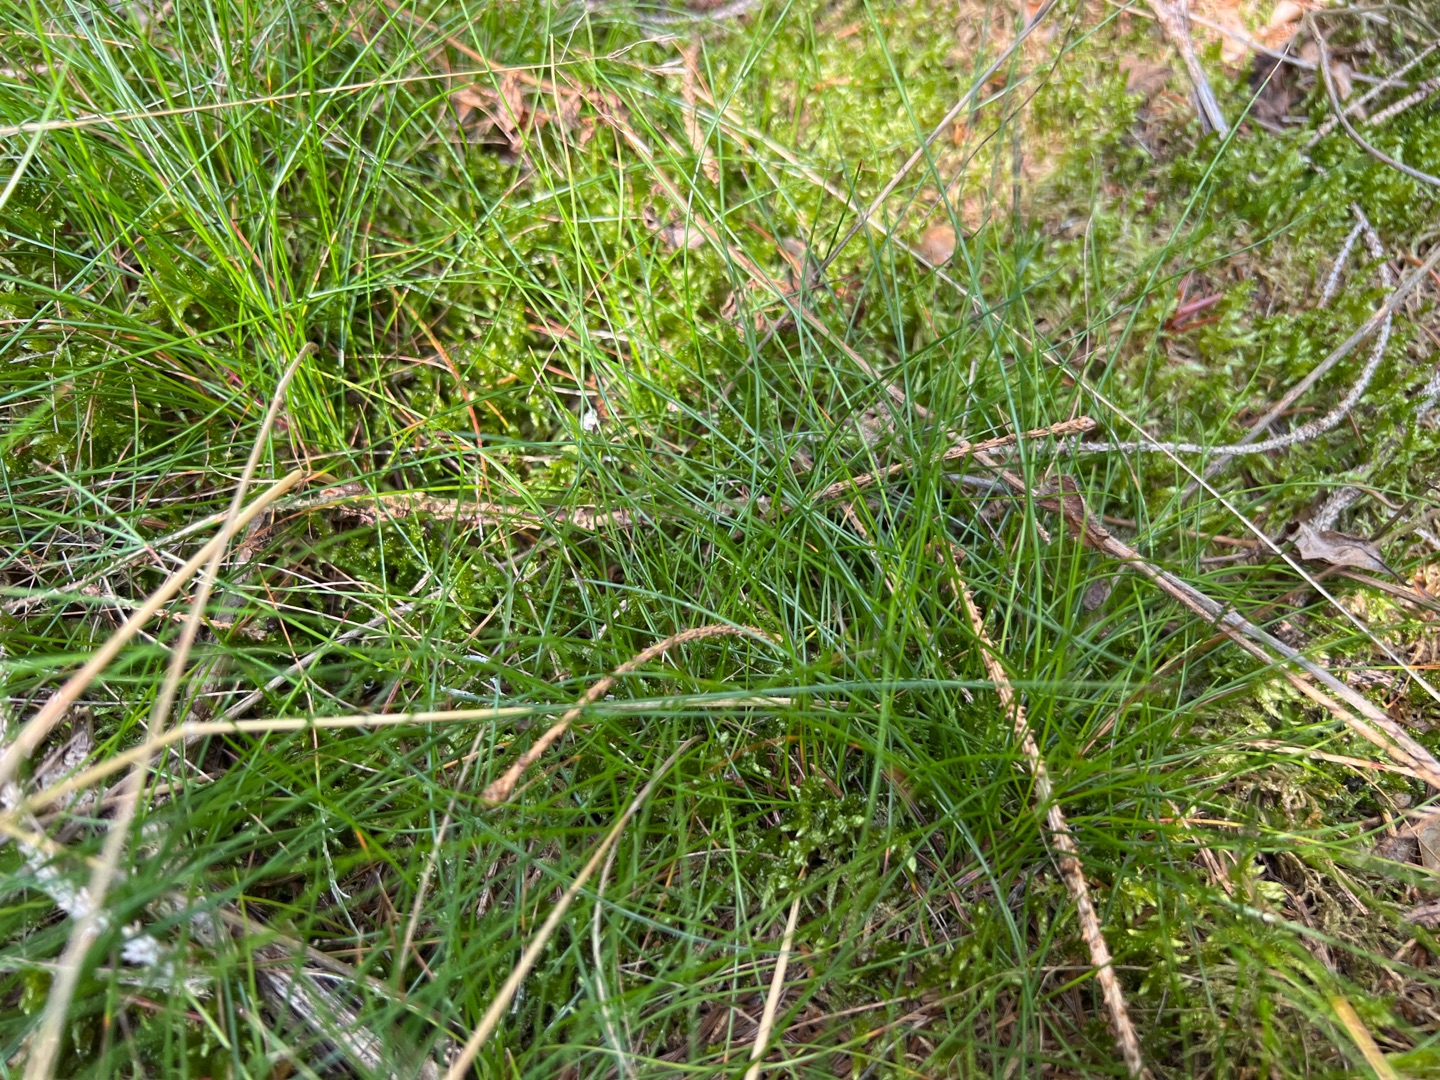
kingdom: Plantae
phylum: Tracheophyta
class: Liliopsida
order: Poales
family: Poaceae
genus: Avenella
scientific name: Avenella flexuosa
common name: Bølget bunke
